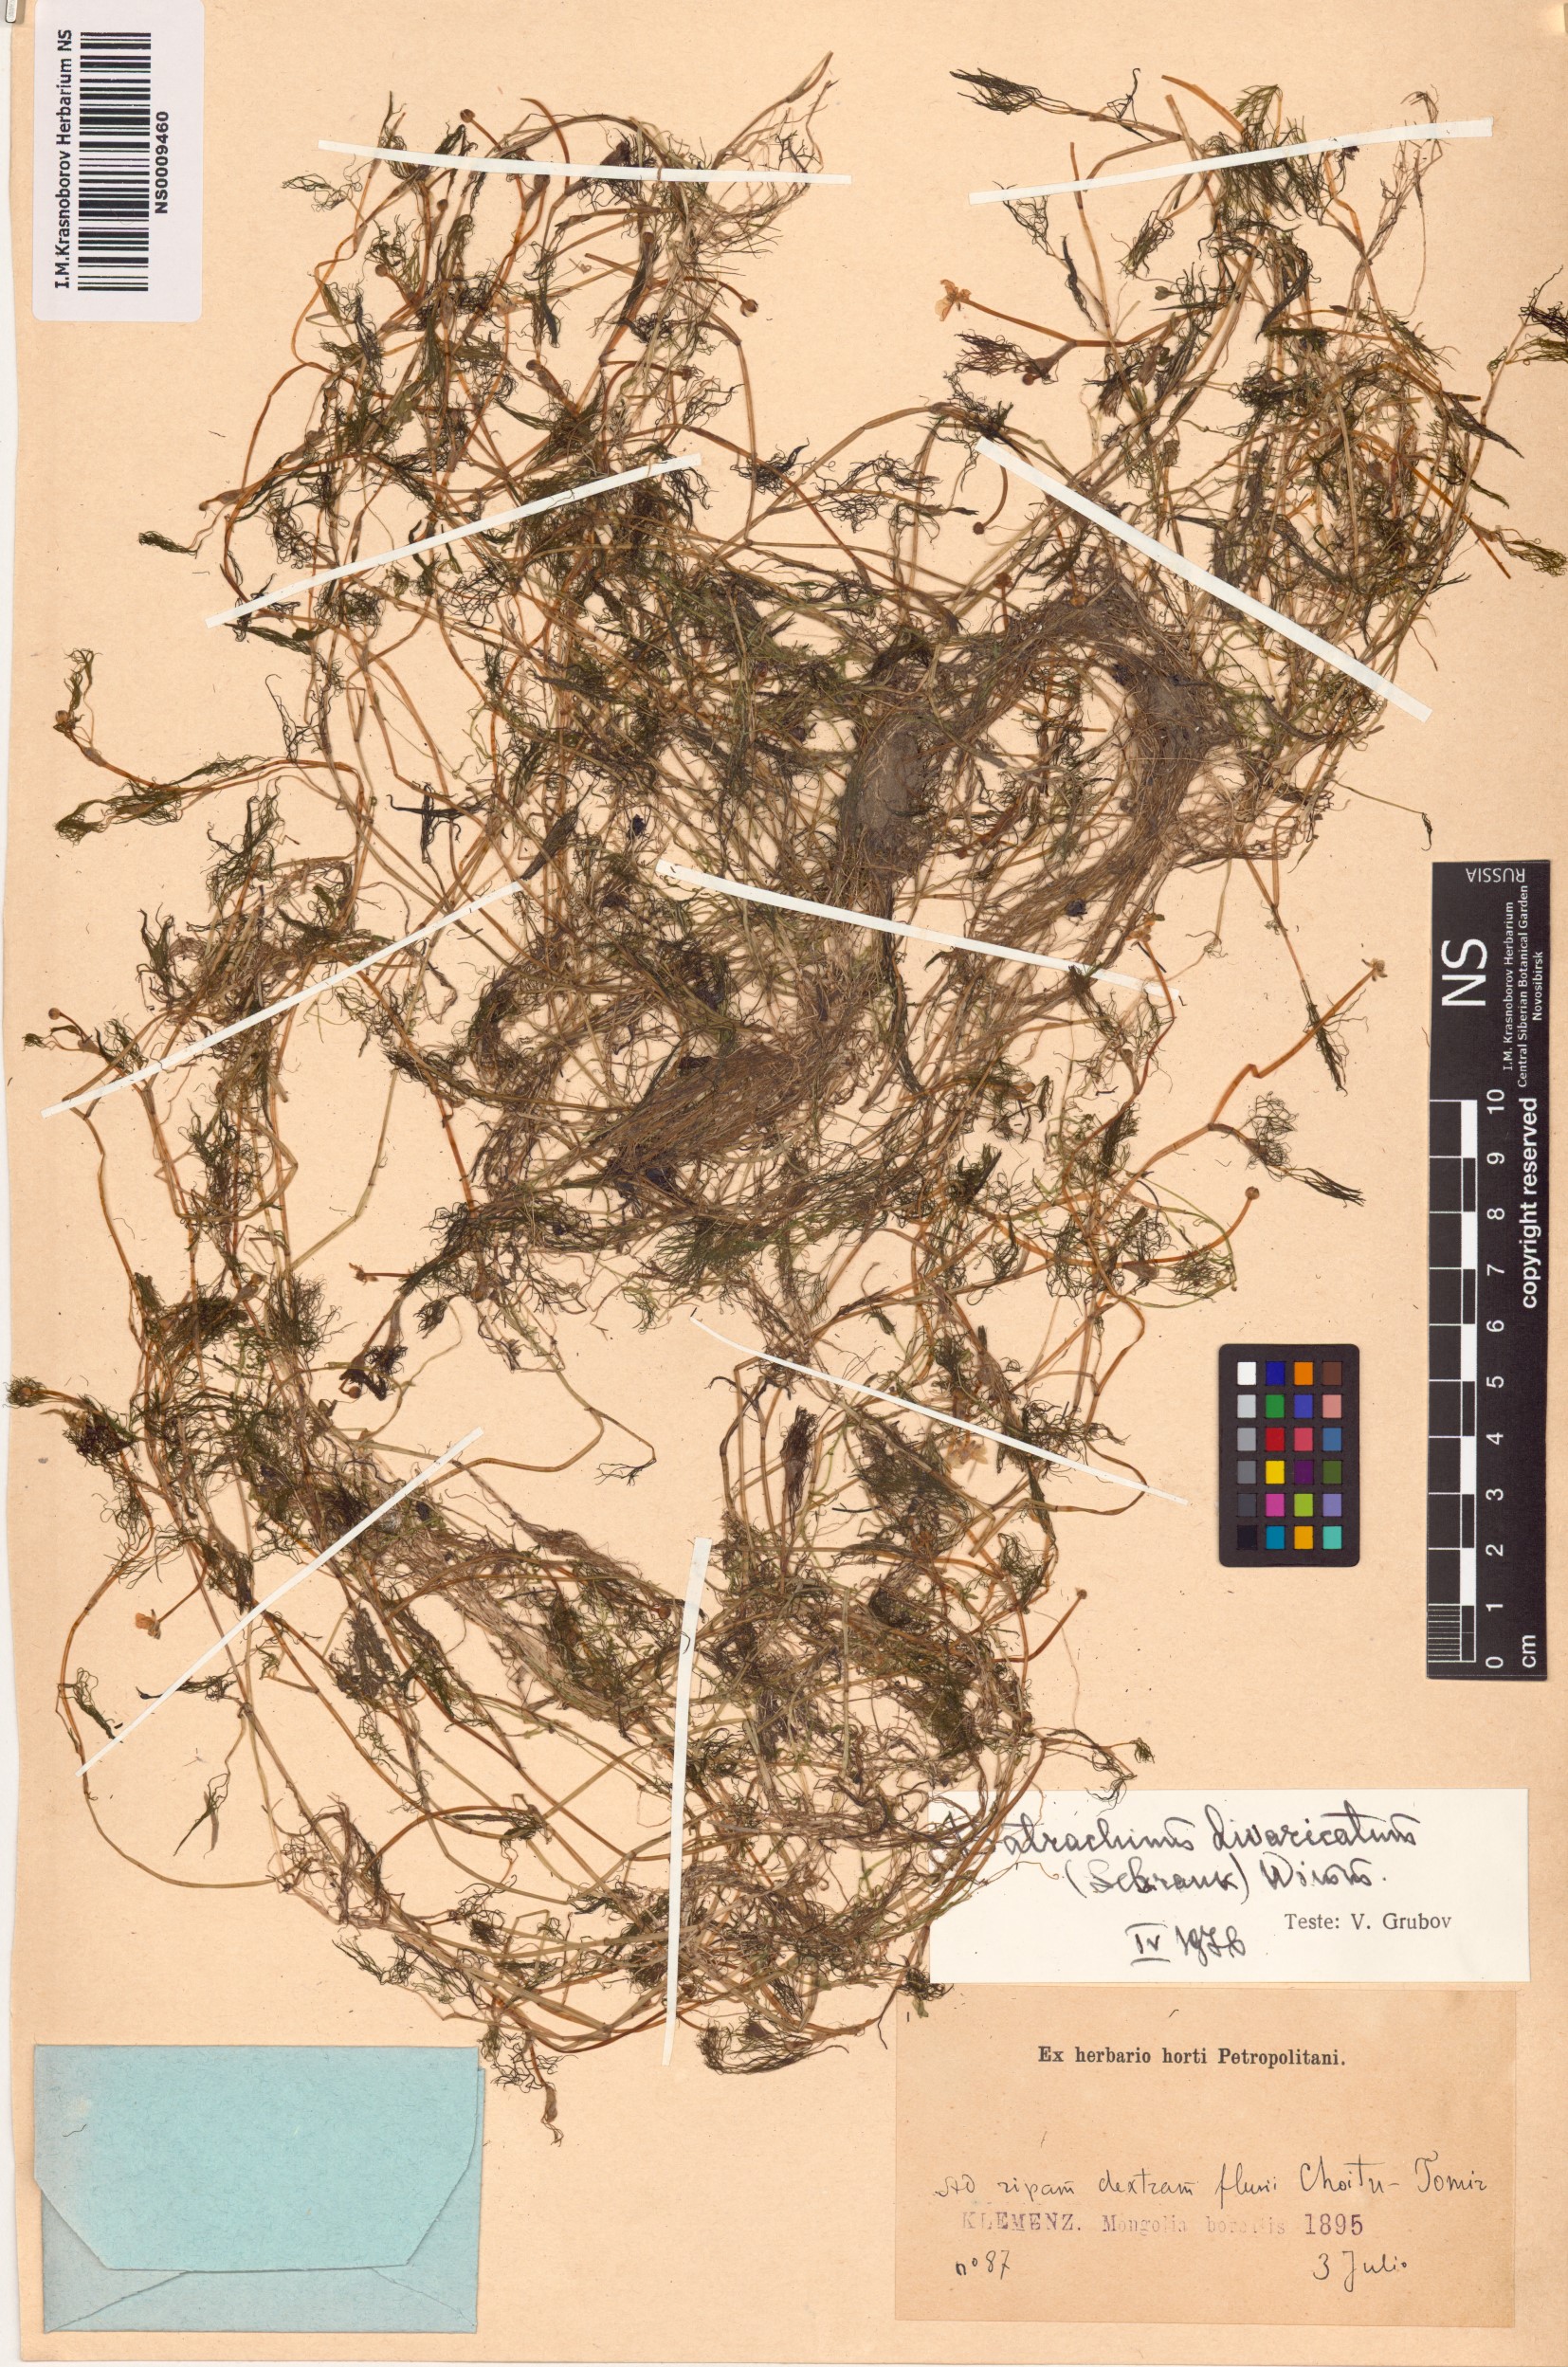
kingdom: Plantae
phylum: Tracheophyta
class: Magnoliopsida
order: Ranunculales
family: Ranunculaceae
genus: Ranunculus
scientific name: Ranunculus trichophyllus
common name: Thread-leaved water-crowfoot
